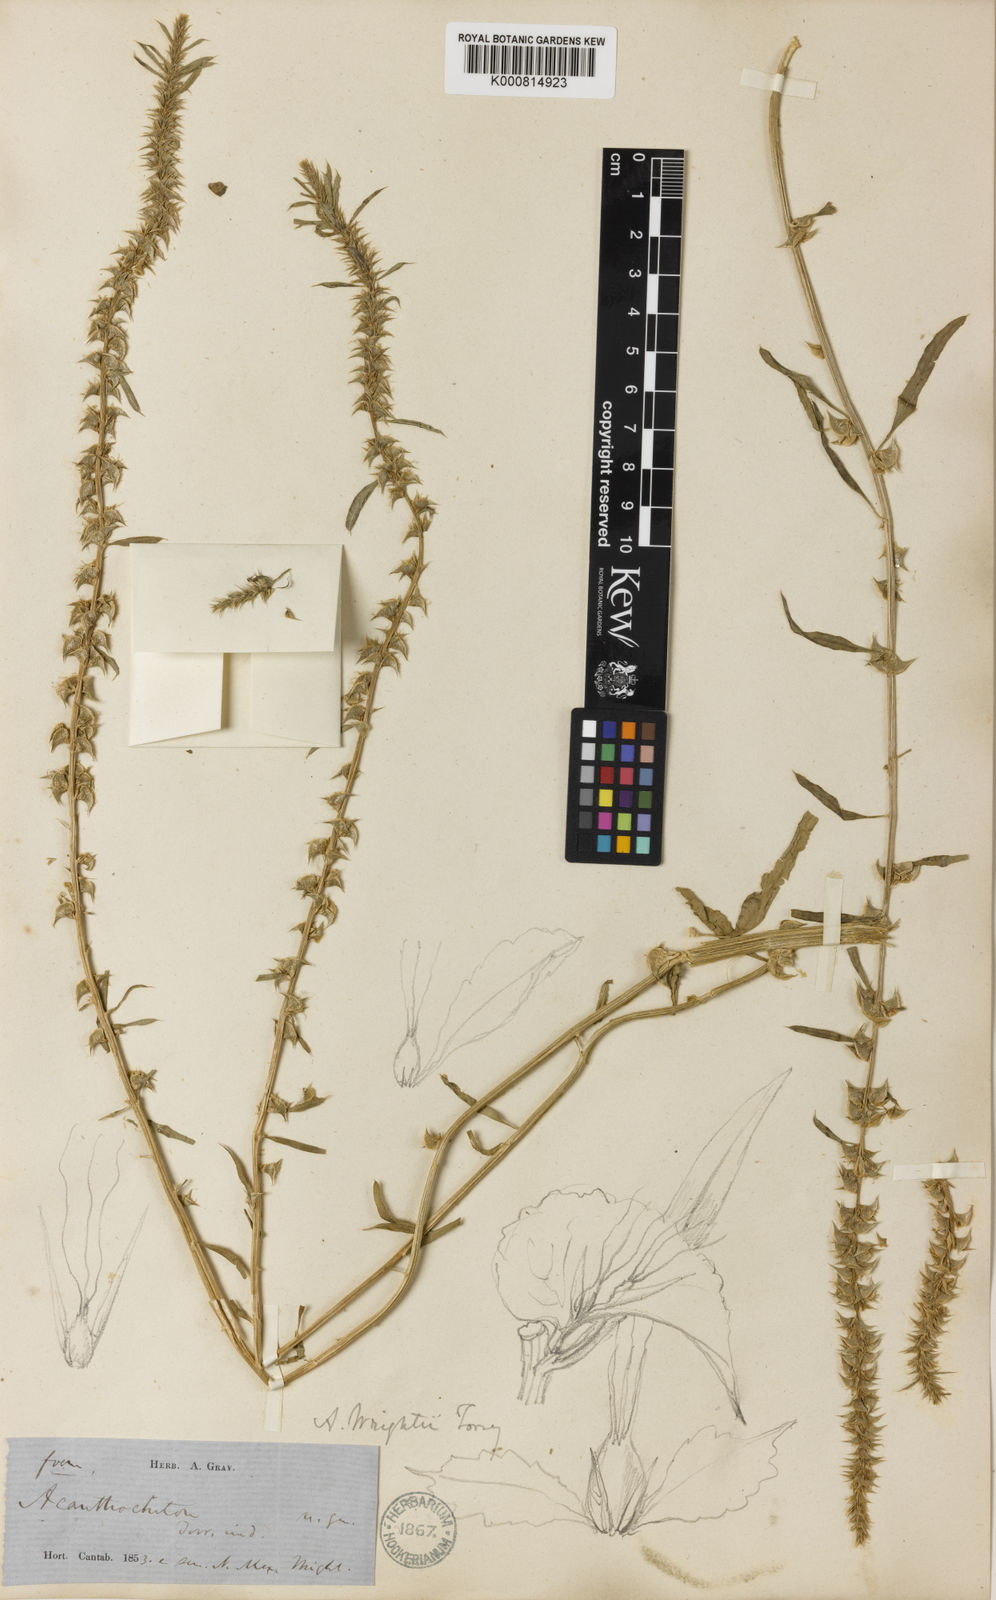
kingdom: Plantae
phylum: Tracheophyta
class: Magnoliopsida
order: Caryophyllales
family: Amaranthaceae
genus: Amaranthus
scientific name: Amaranthus acanthochiton
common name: Greenstripe
